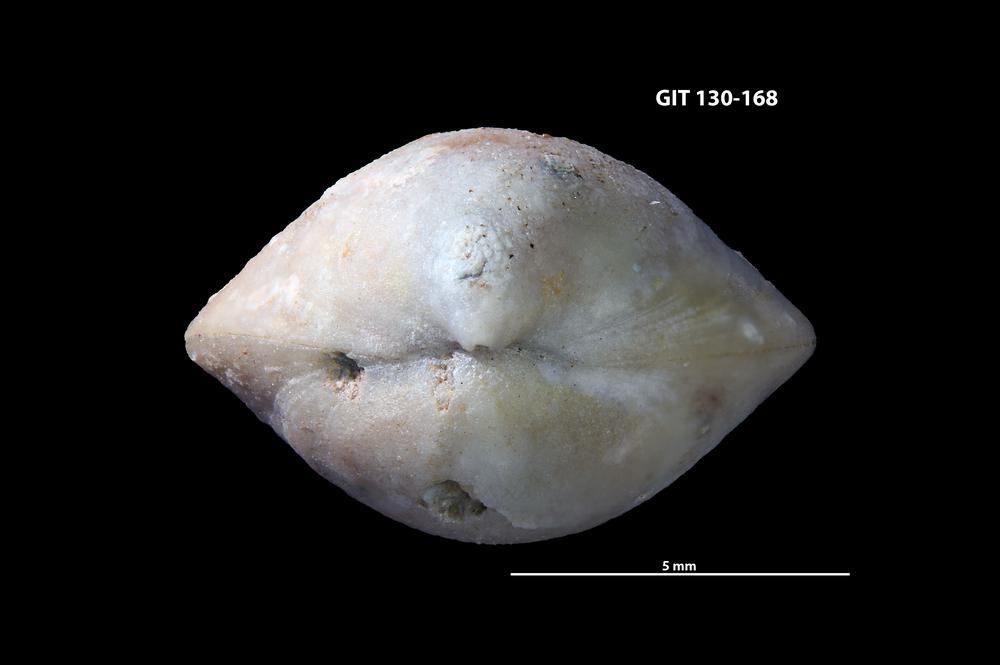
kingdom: Animalia
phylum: Brachiopoda
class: Rhynchonellata
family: Meristellidae
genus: Koigia
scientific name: Koigia
